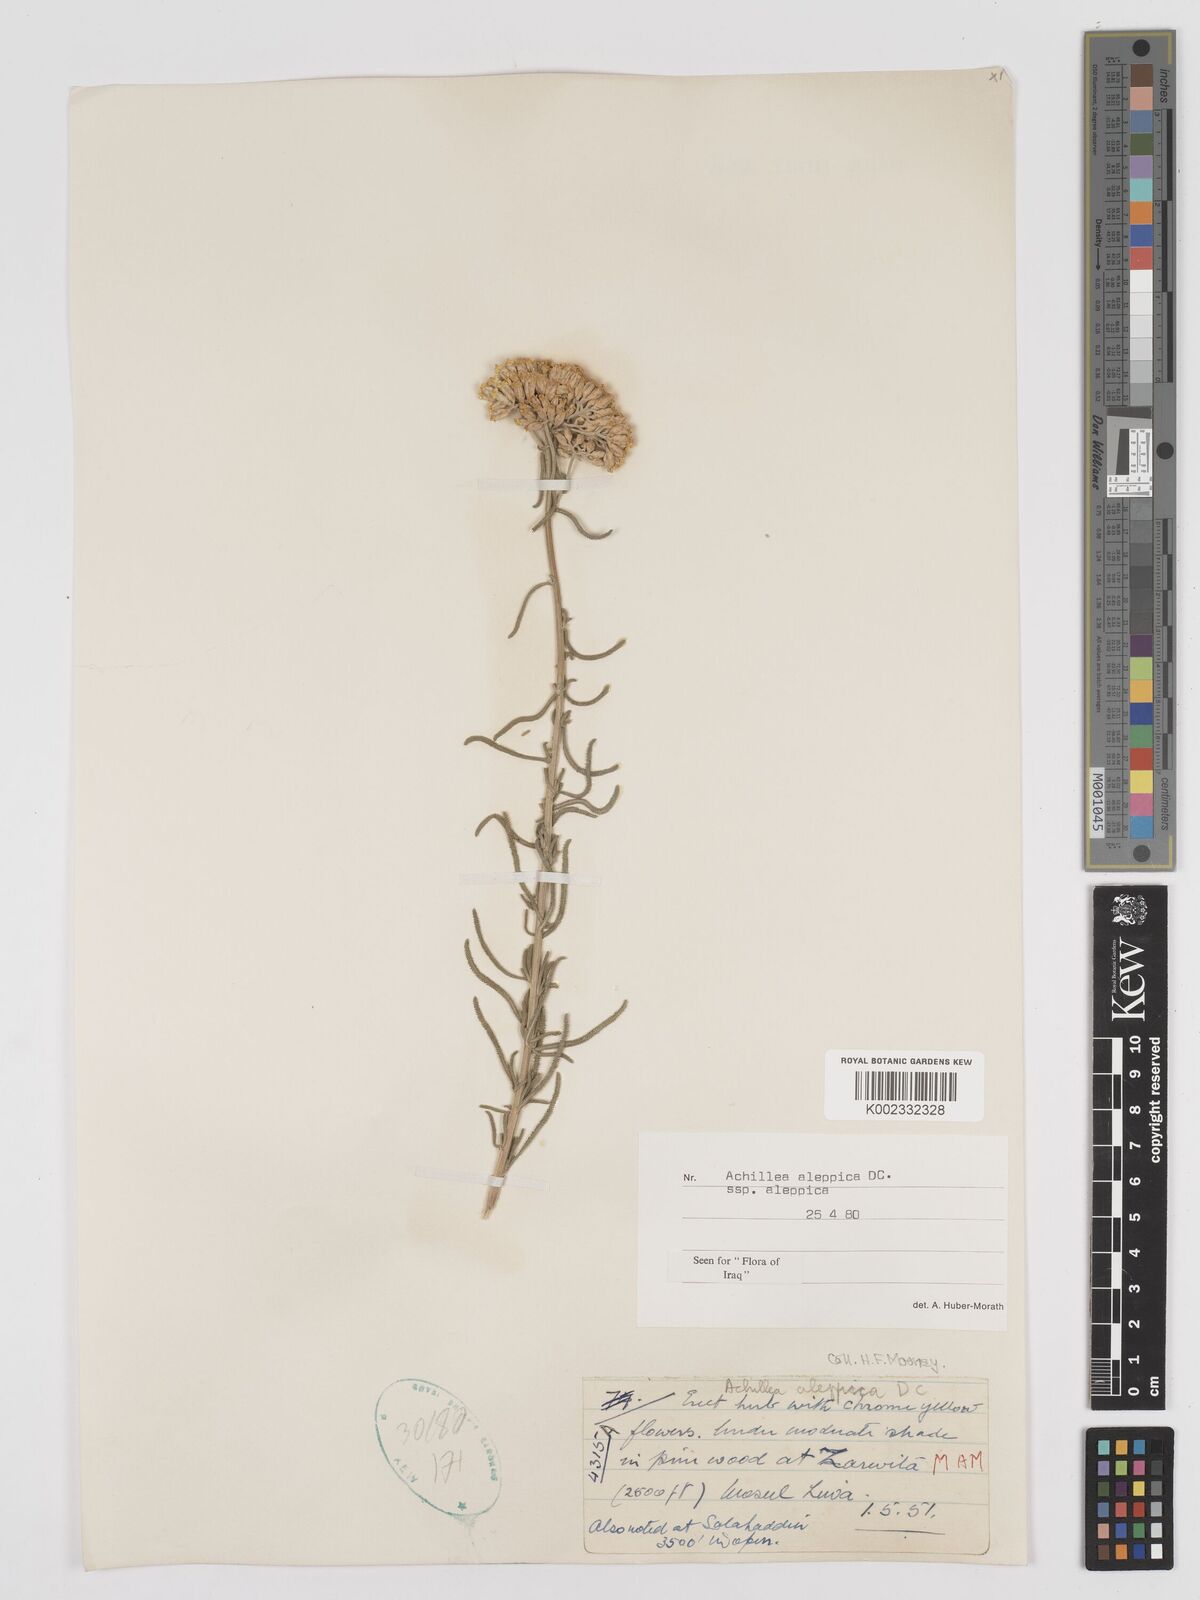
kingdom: Plantae
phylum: Tracheophyta
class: Magnoliopsida
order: Asterales
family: Asteraceae
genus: Achillea
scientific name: Achillea aleppica
